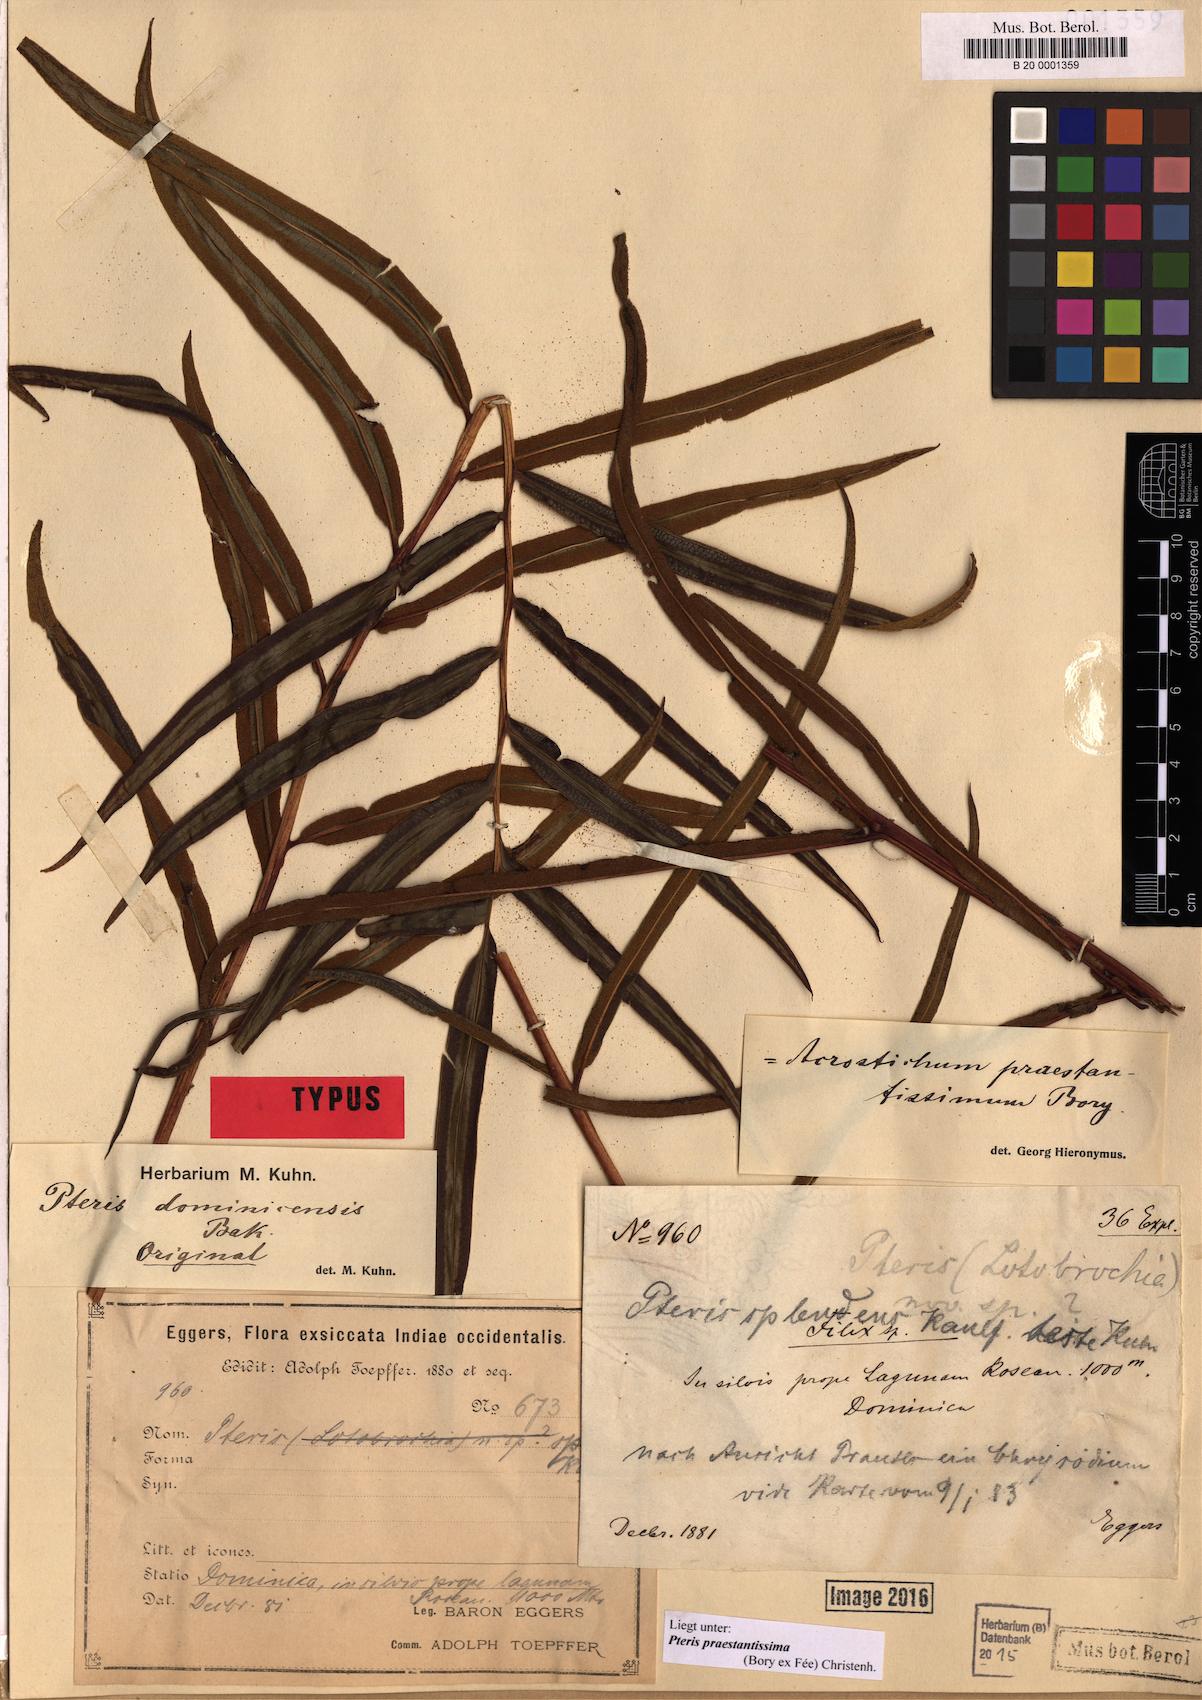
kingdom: Plantae
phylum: Tracheophyta
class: Polypodiopsida
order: Polypodiales
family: Pteridaceae
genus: Pteris
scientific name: Pteris praestantissima
